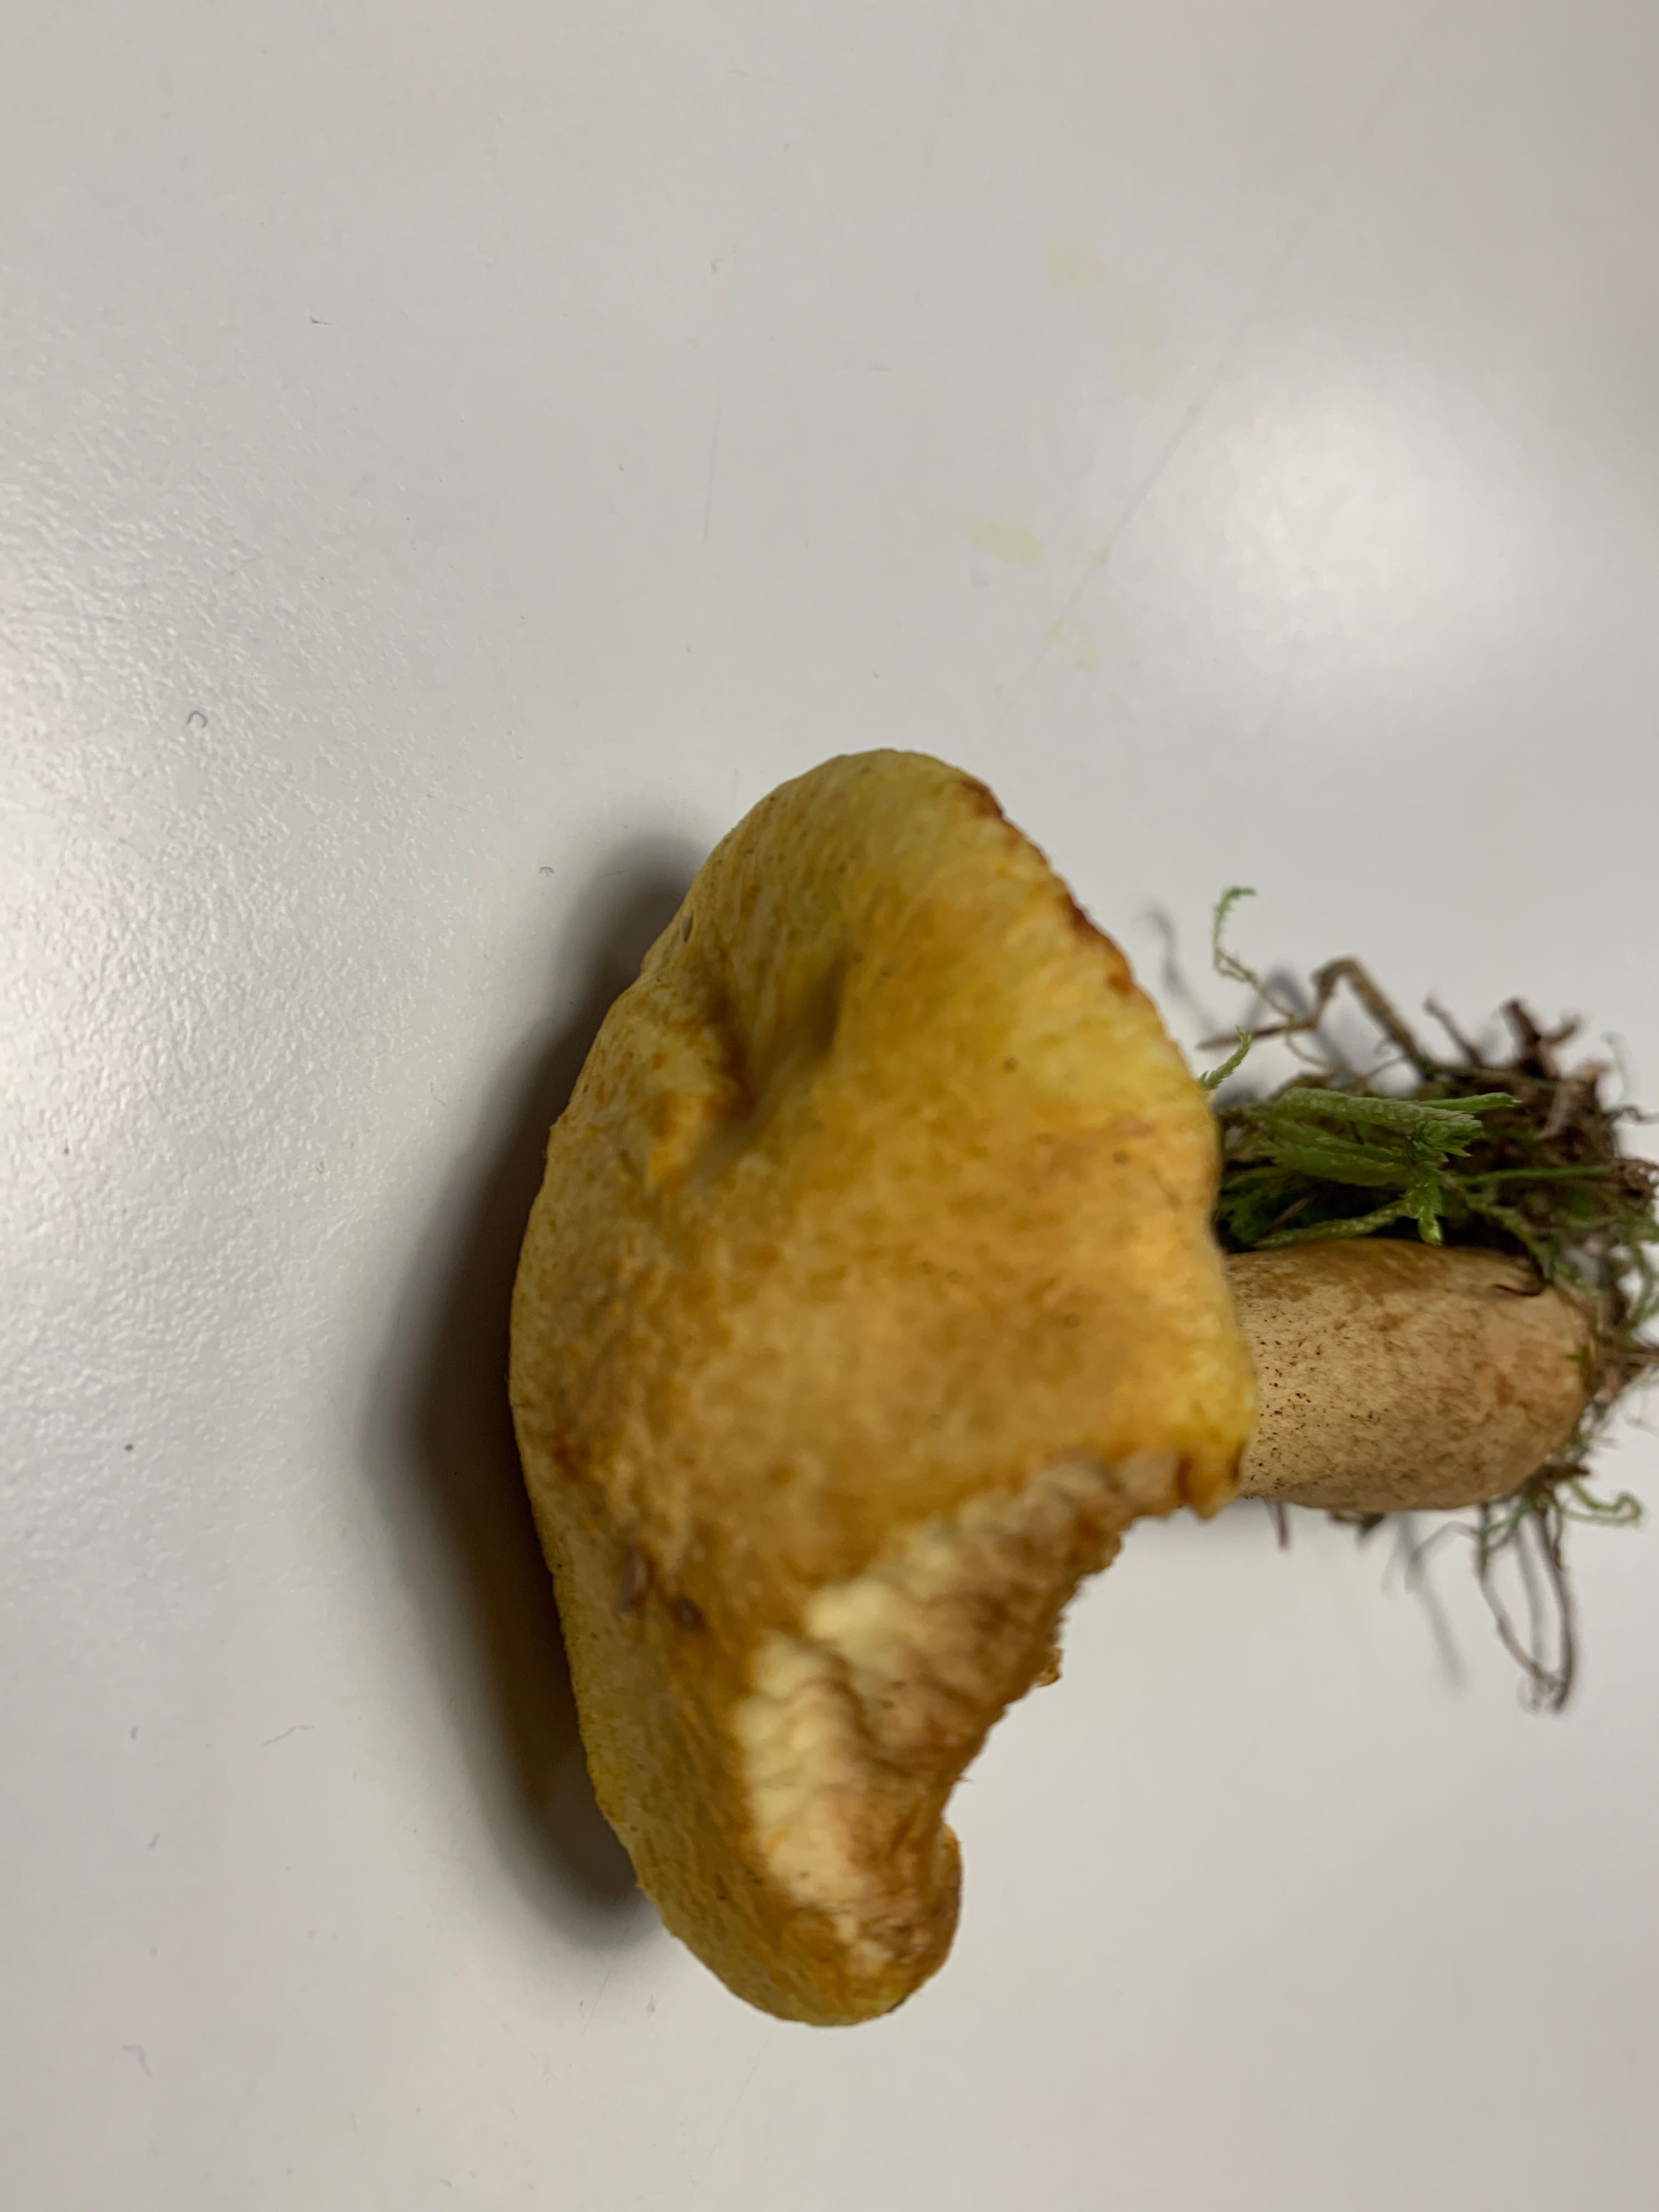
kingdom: Fungi
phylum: Basidiomycota
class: Agaricomycetes
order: Boletales
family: Suillaceae
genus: Suillus
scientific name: Suillus cavipes
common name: hulstokket slimrørhat, gul form
